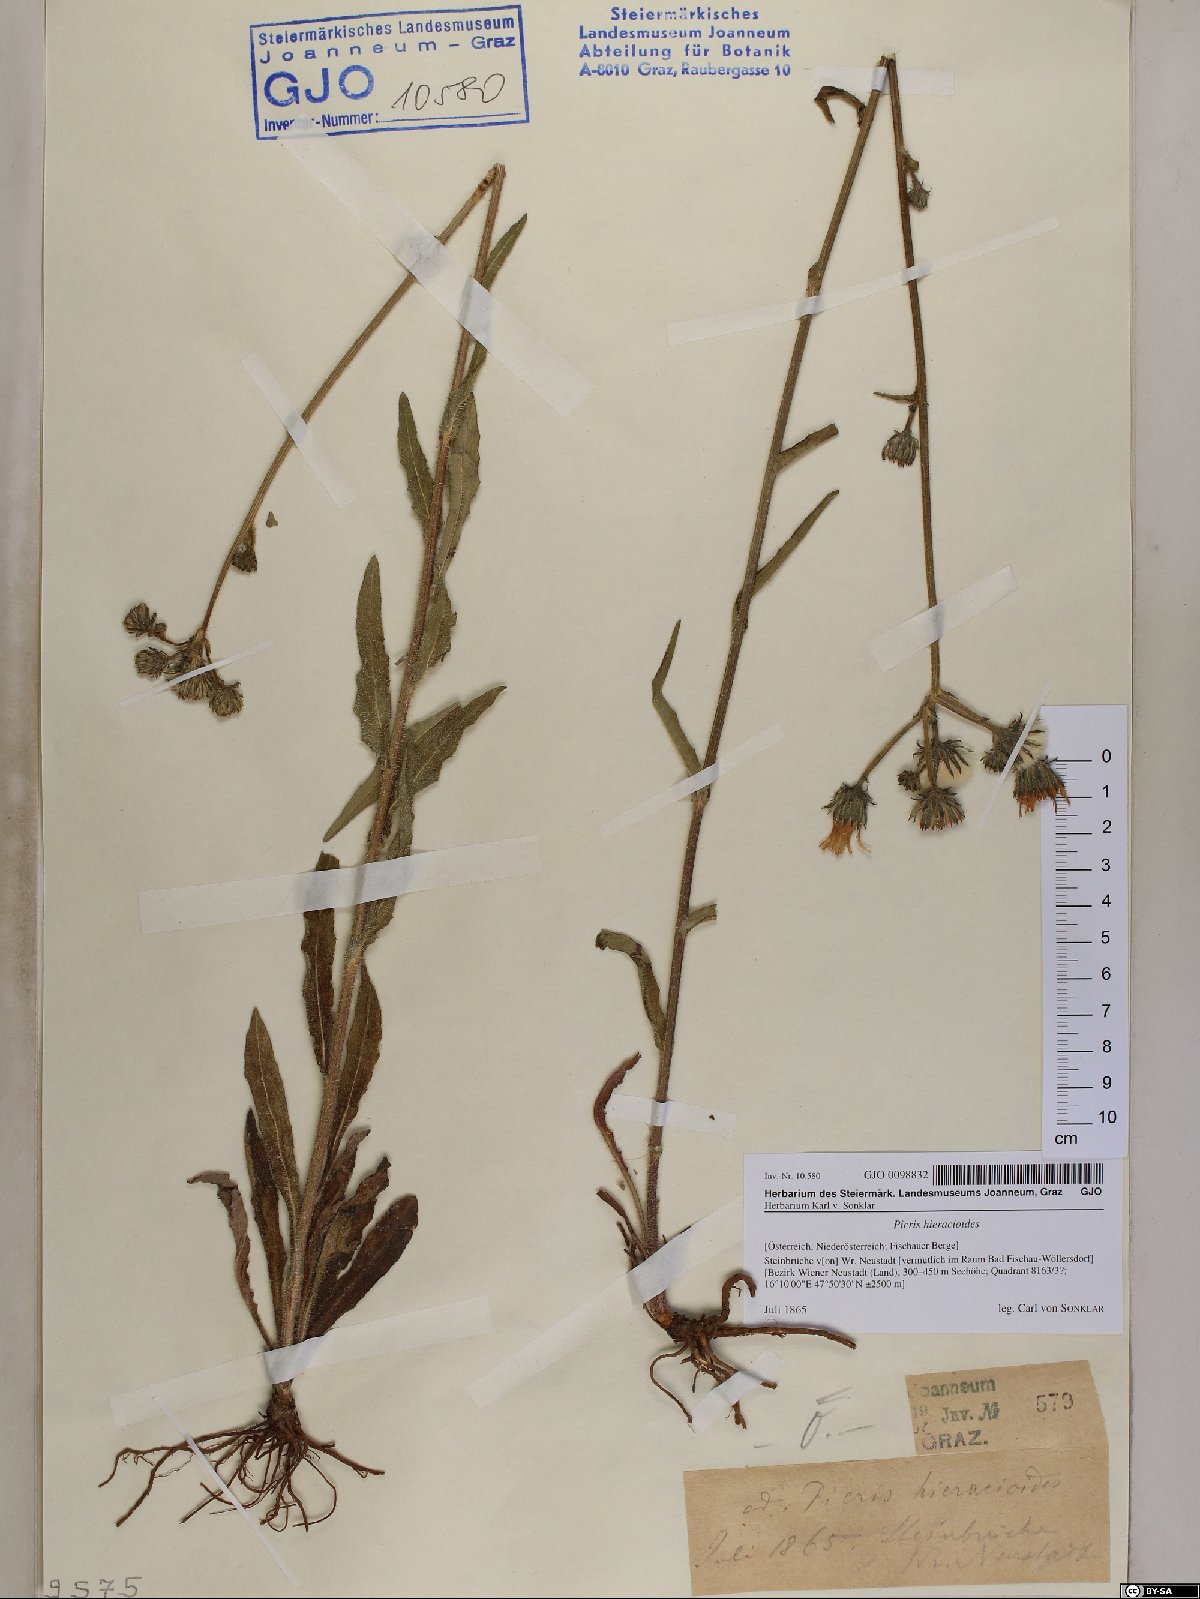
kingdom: Plantae
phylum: Tracheophyta
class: Magnoliopsida
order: Asterales
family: Asteraceae
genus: Picris
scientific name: Picris hieracioides
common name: Hawkweed oxtongue
